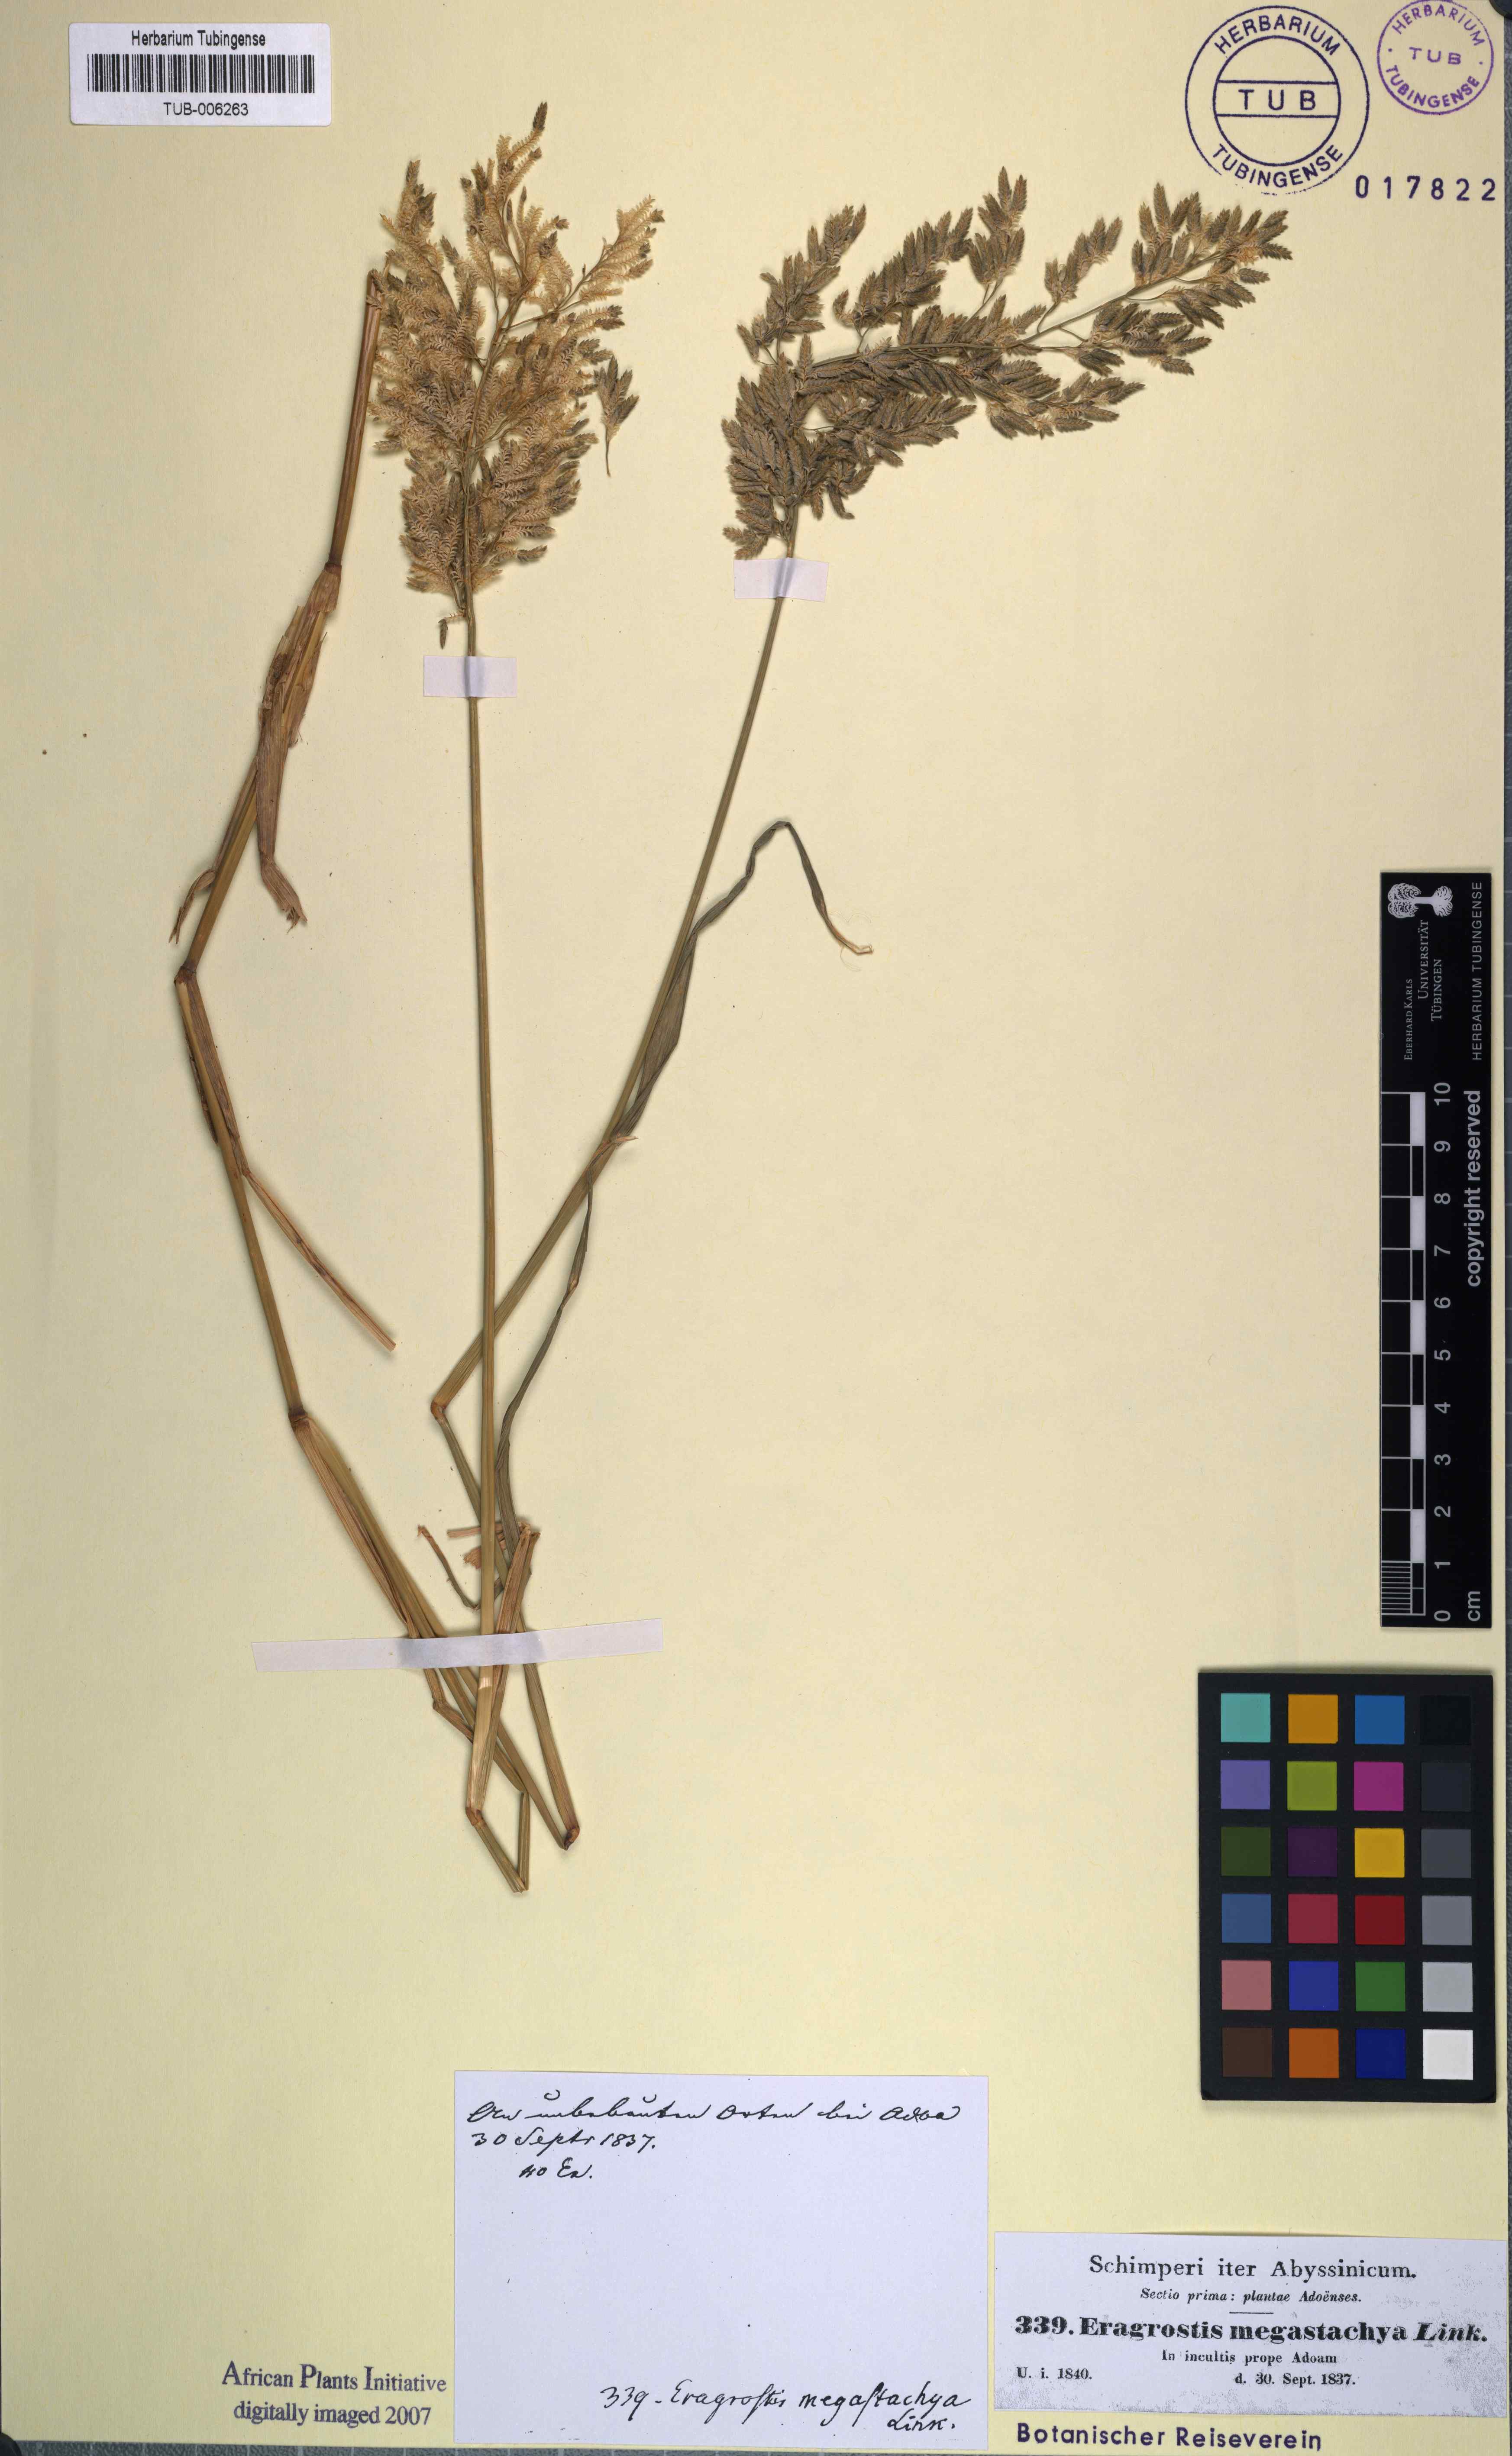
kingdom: Plantae
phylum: Tracheophyta
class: Liliopsida
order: Poales
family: Poaceae
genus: Eragrostis
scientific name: Eragrostis
